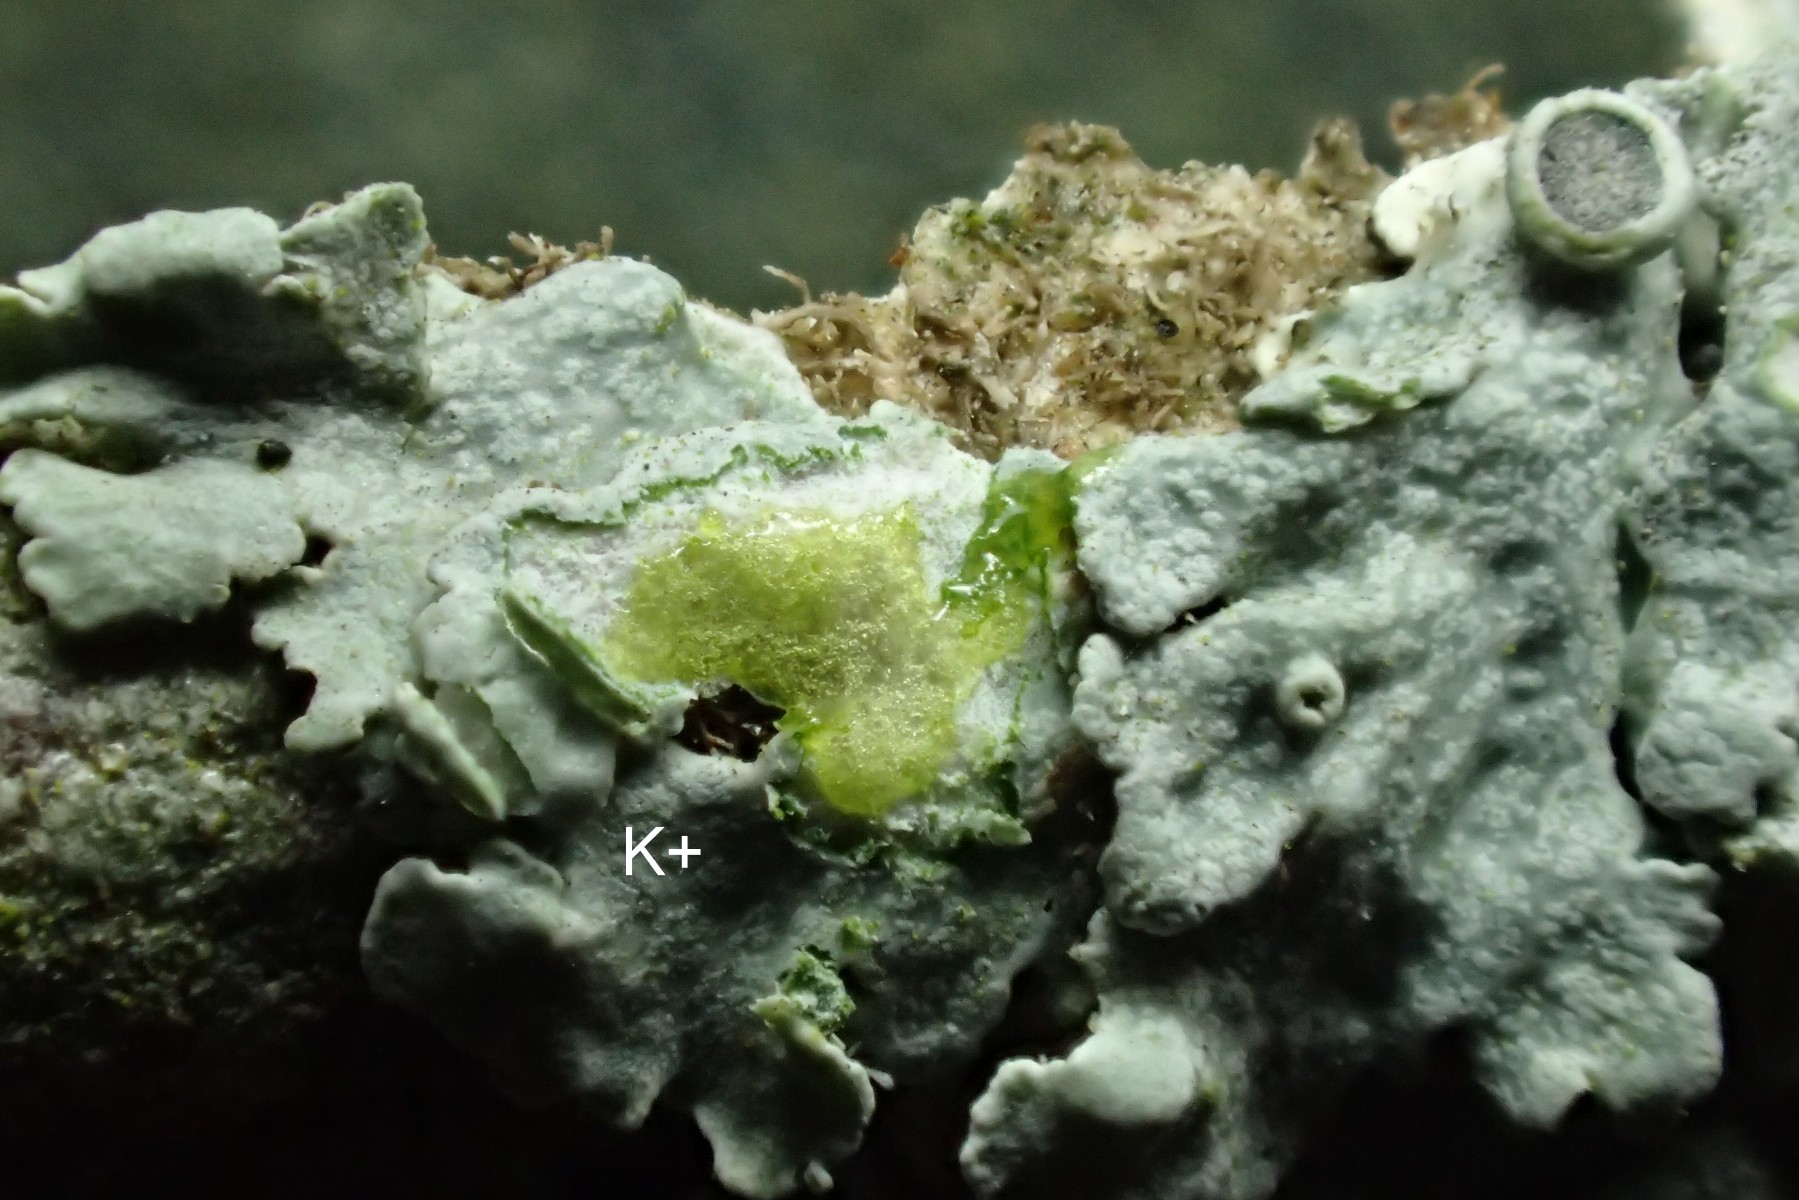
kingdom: Fungi
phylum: Ascomycota
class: Lecanoromycetes
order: Caliciales
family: Physciaceae
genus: Physcia
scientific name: Physcia aipolia
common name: hvidprikket rosetlav
